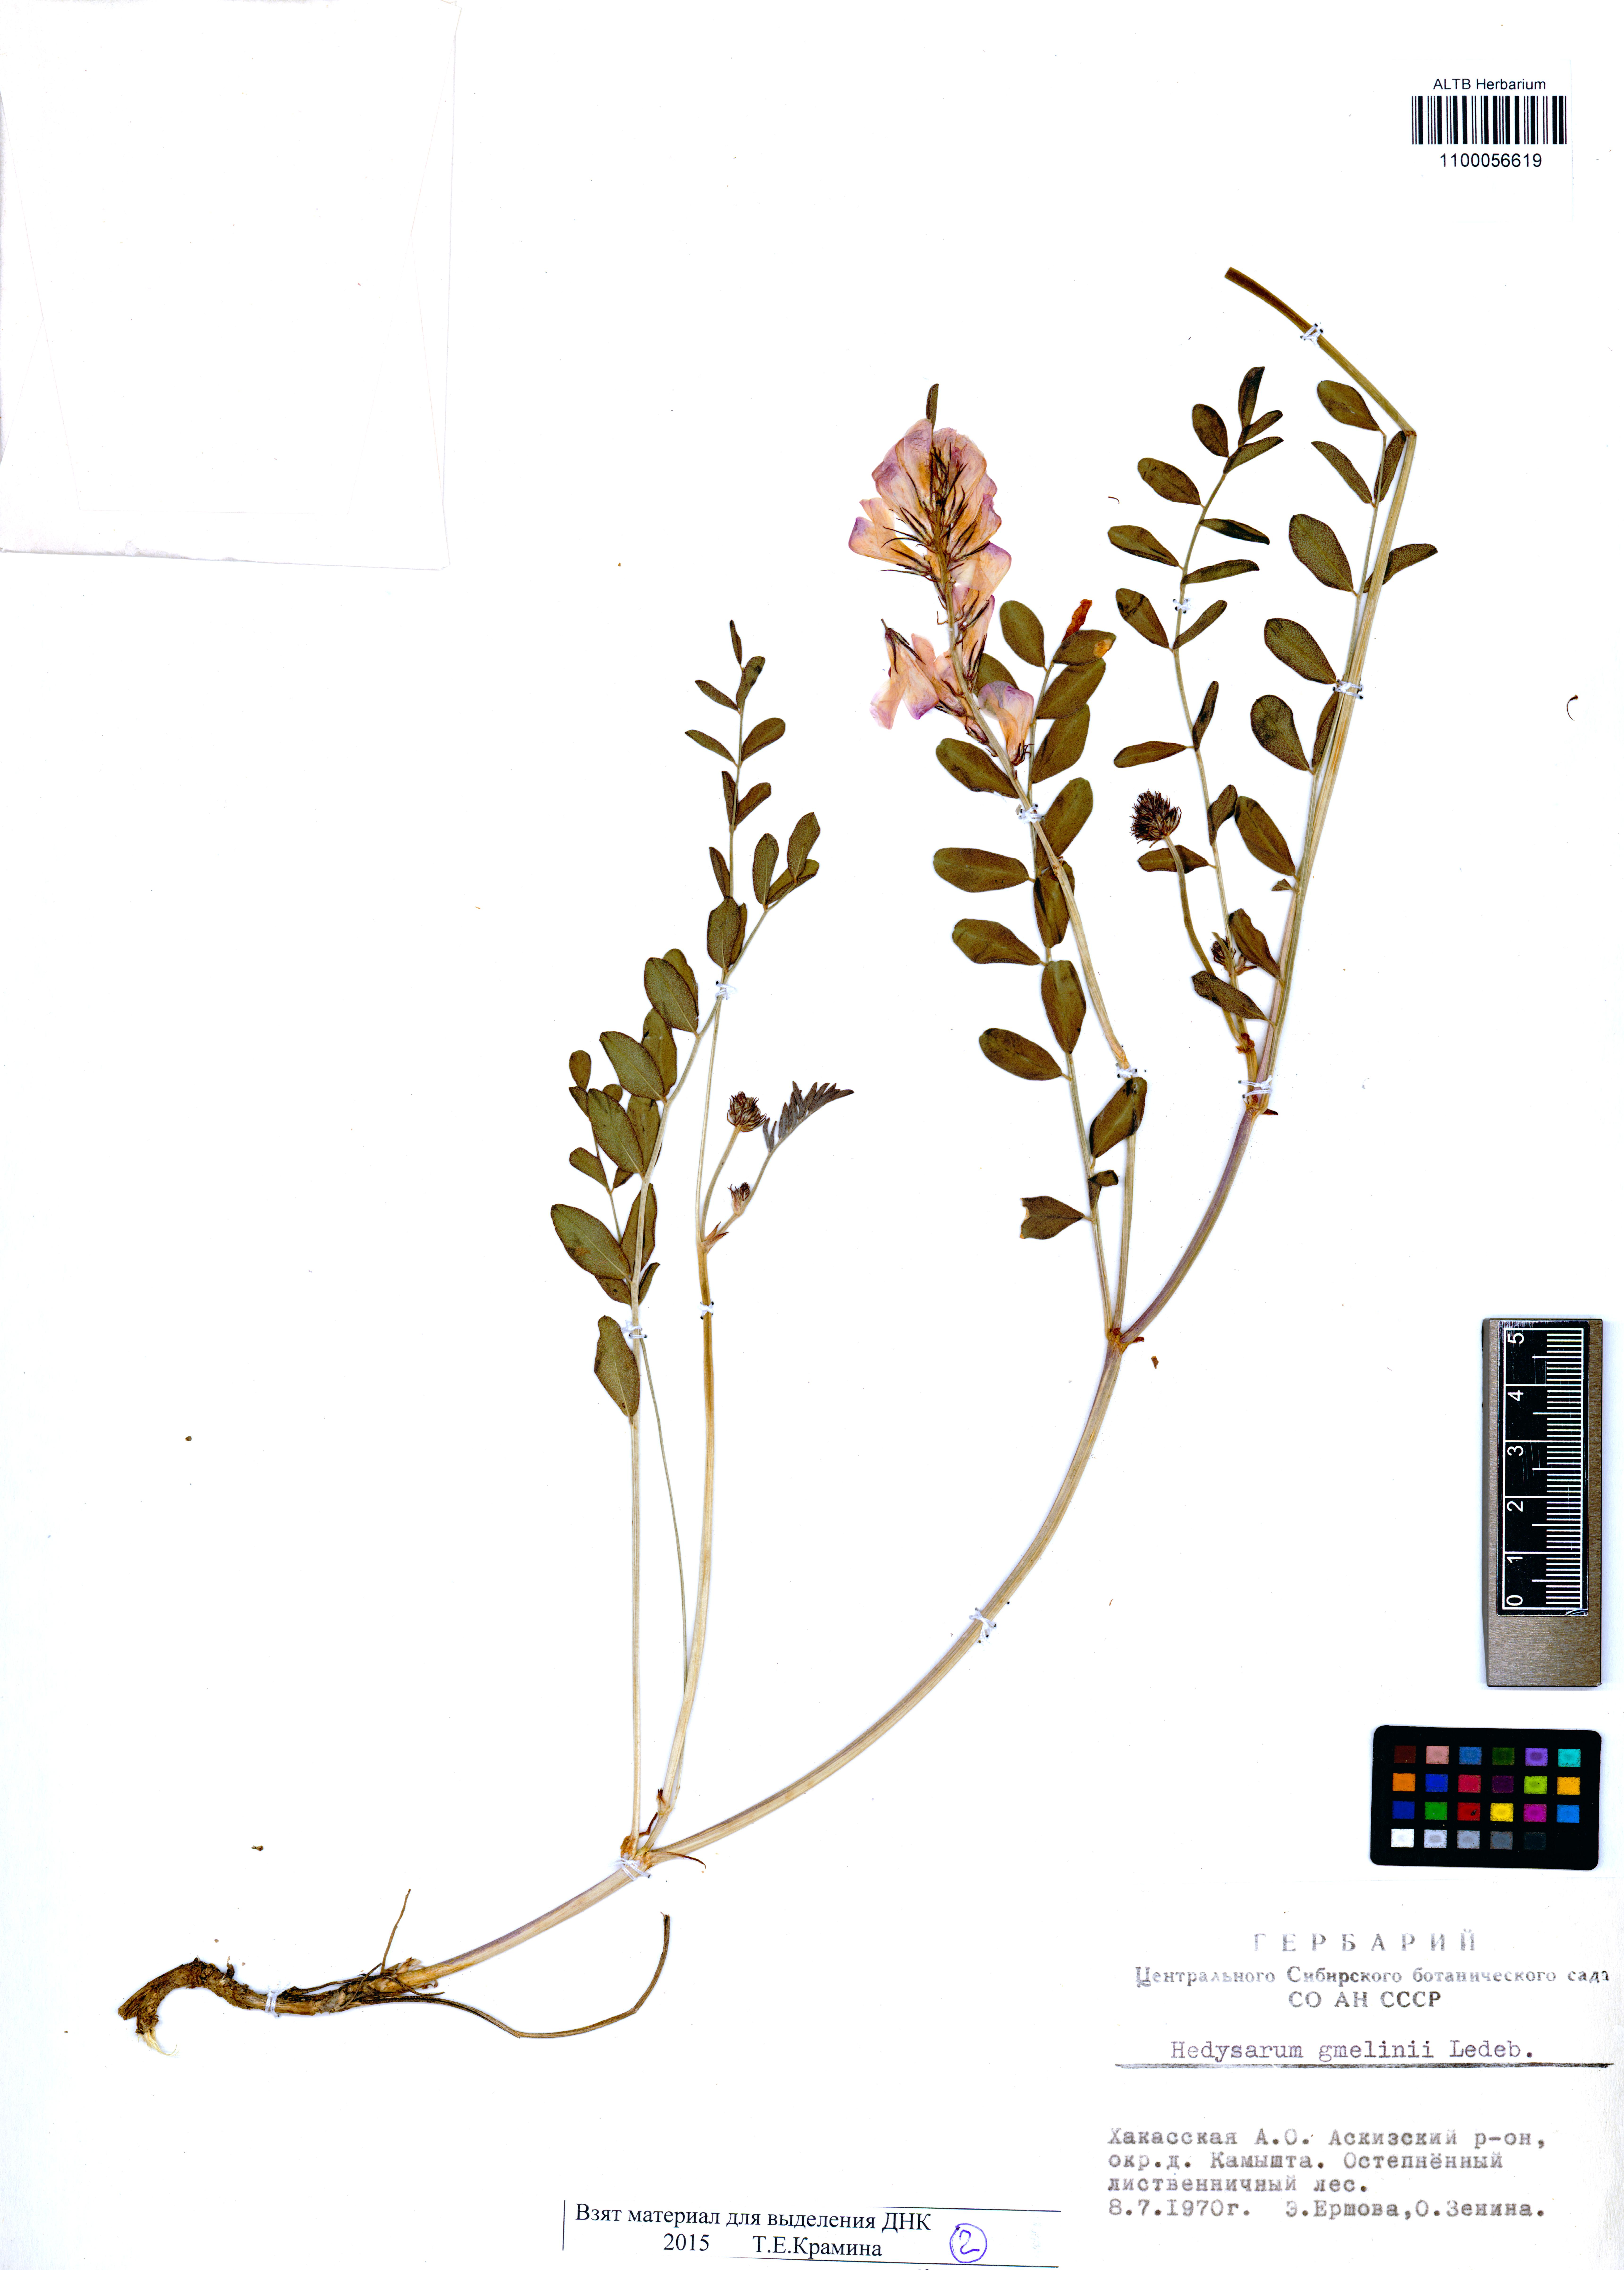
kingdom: Plantae
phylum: Tracheophyta
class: Magnoliopsida
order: Fabales
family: Fabaceae
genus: Hedysarum
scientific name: Hedysarum gmelinii
